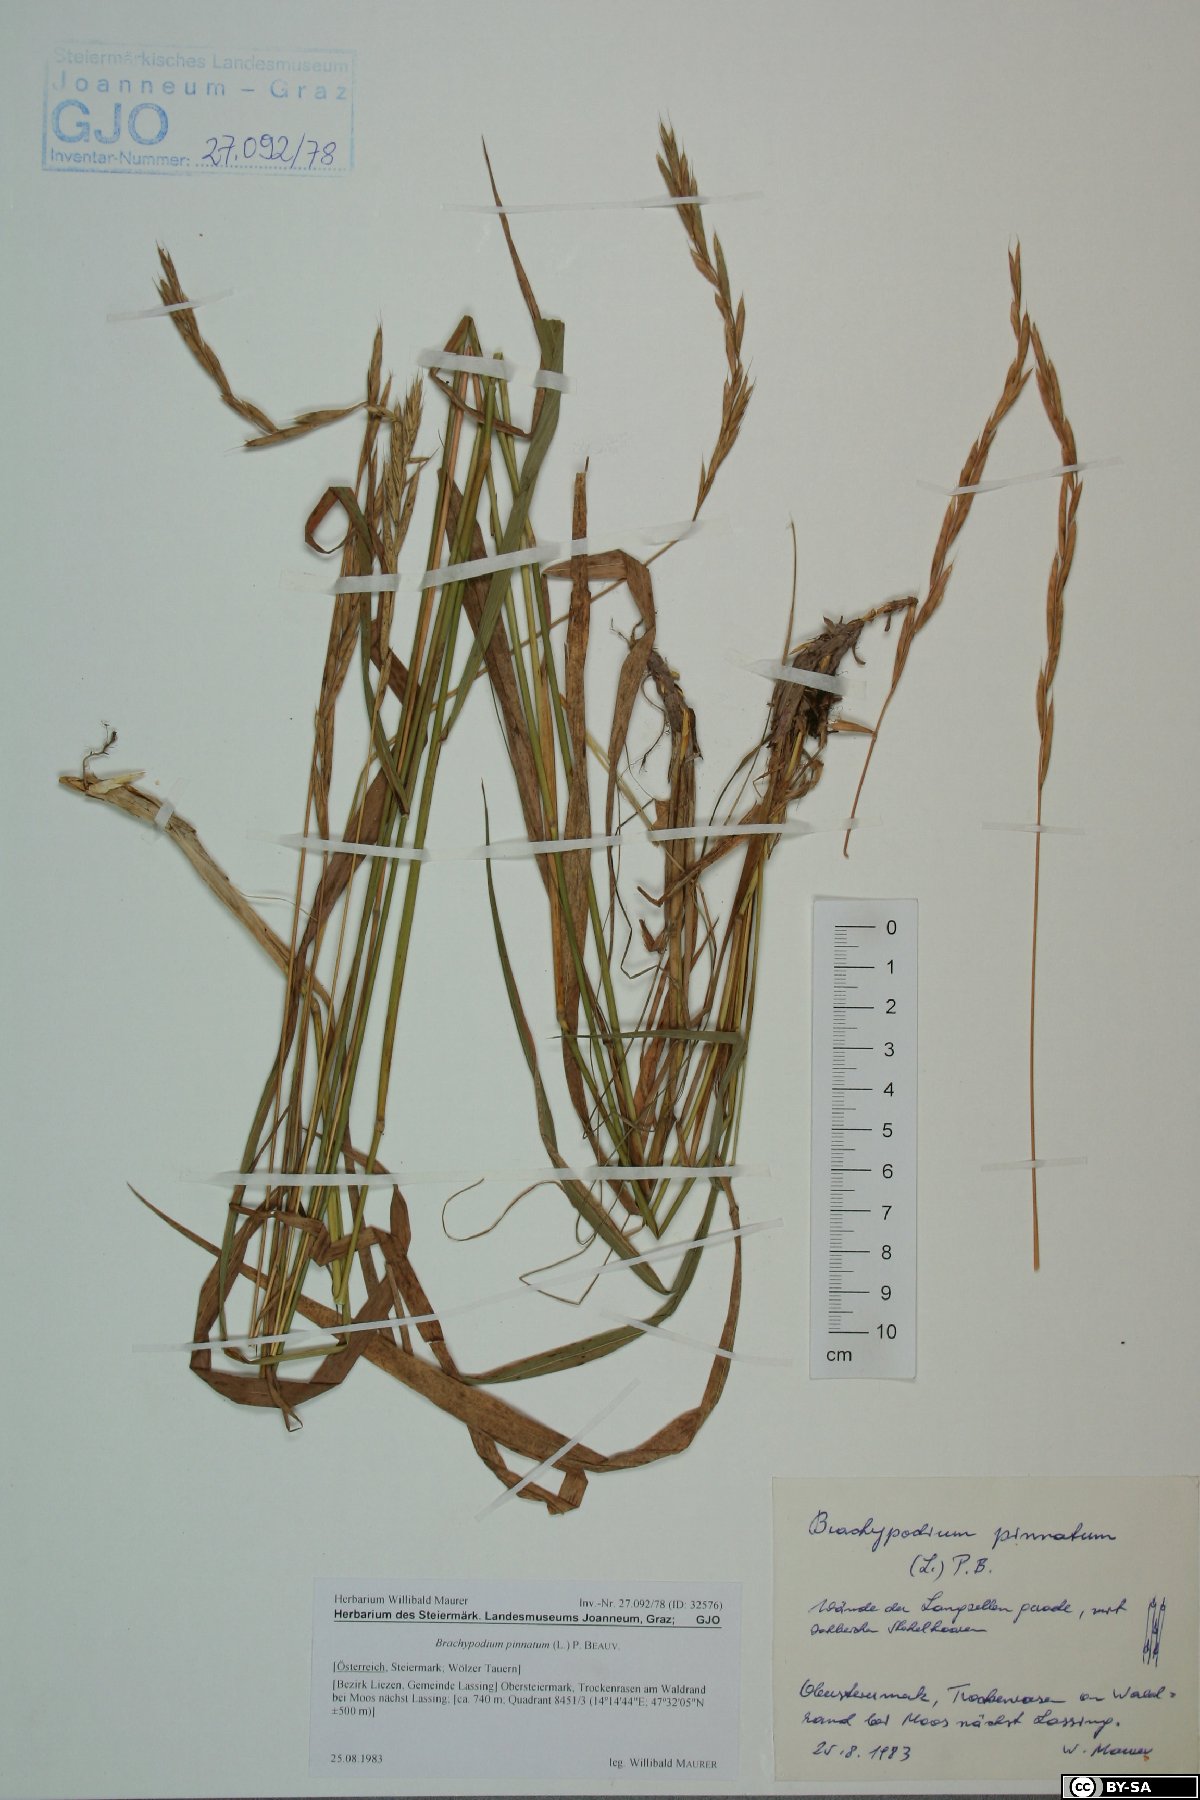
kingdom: Plantae
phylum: Tracheophyta
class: Liliopsida
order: Poales
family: Poaceae
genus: Brachypodium
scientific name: Brachypodium pinnatum
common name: Tor grass
